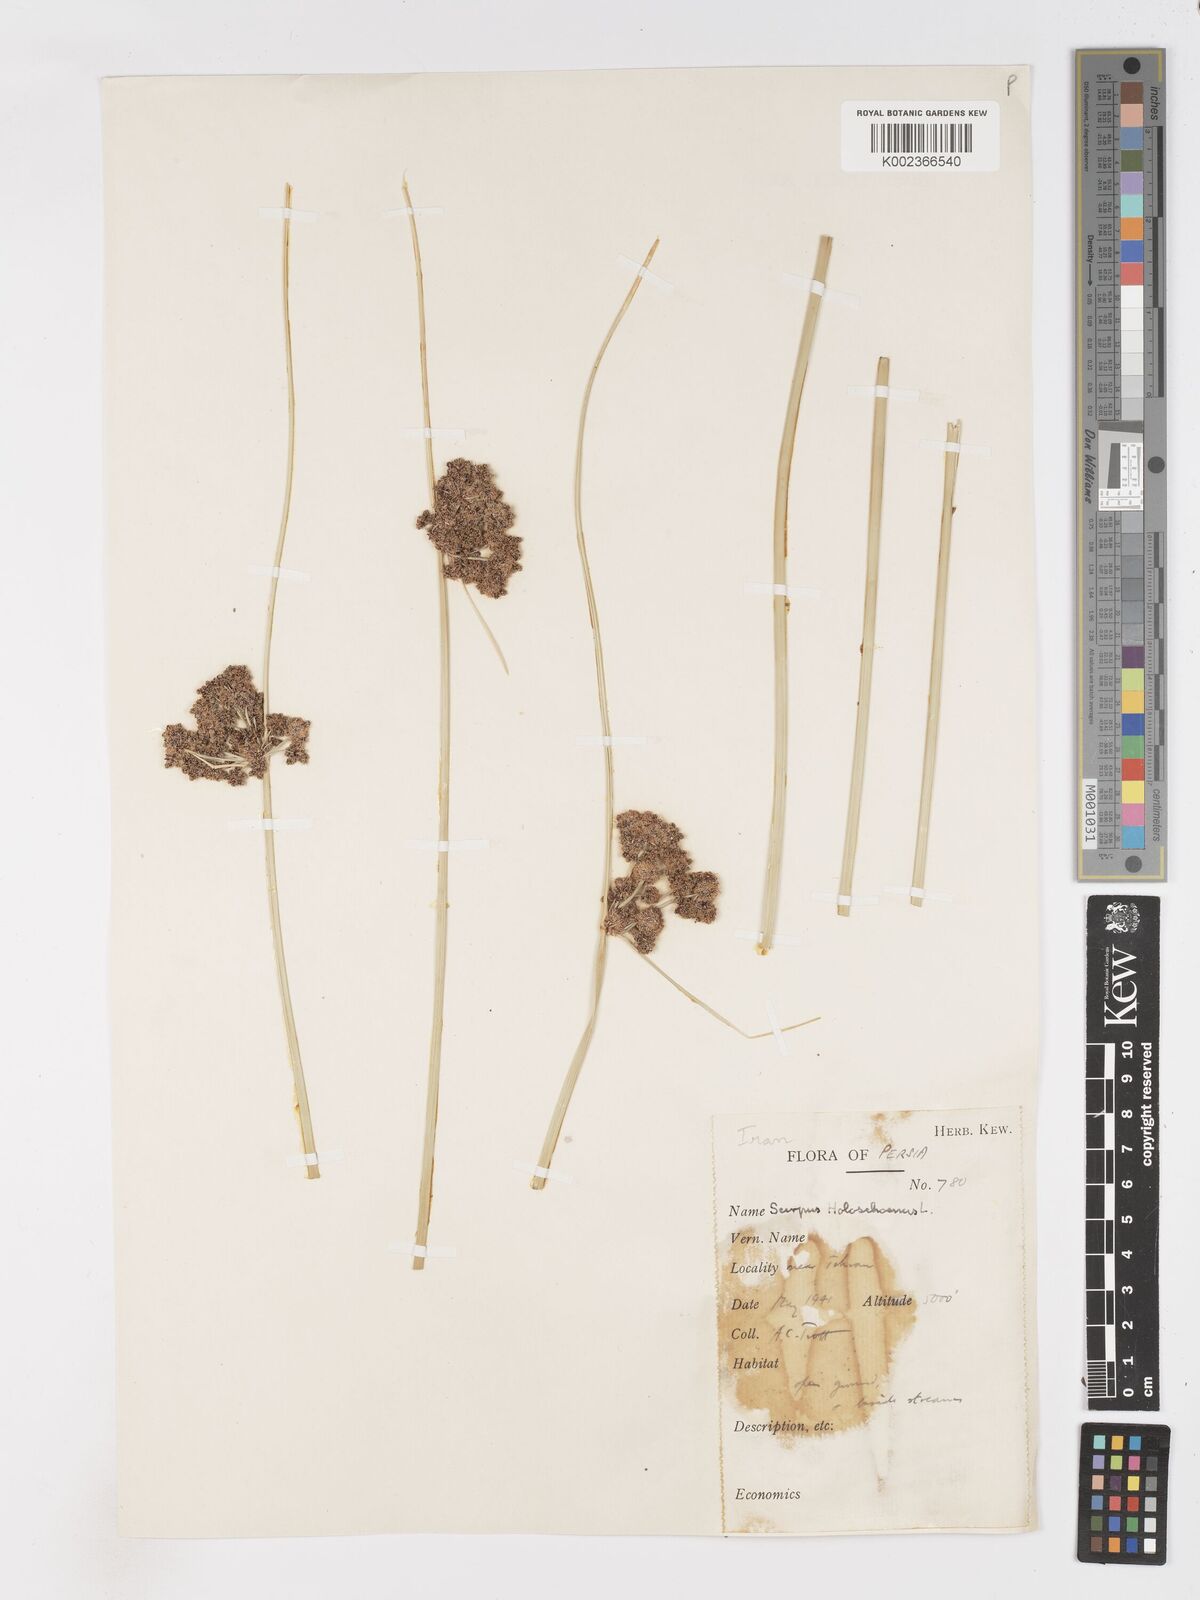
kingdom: Plantae
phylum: Tracheophyta
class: Liliopsida
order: Poales
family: Cyperaceae
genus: Scirpoides
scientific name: Scirpoides holoschoenus
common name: Round-headed club-rush
